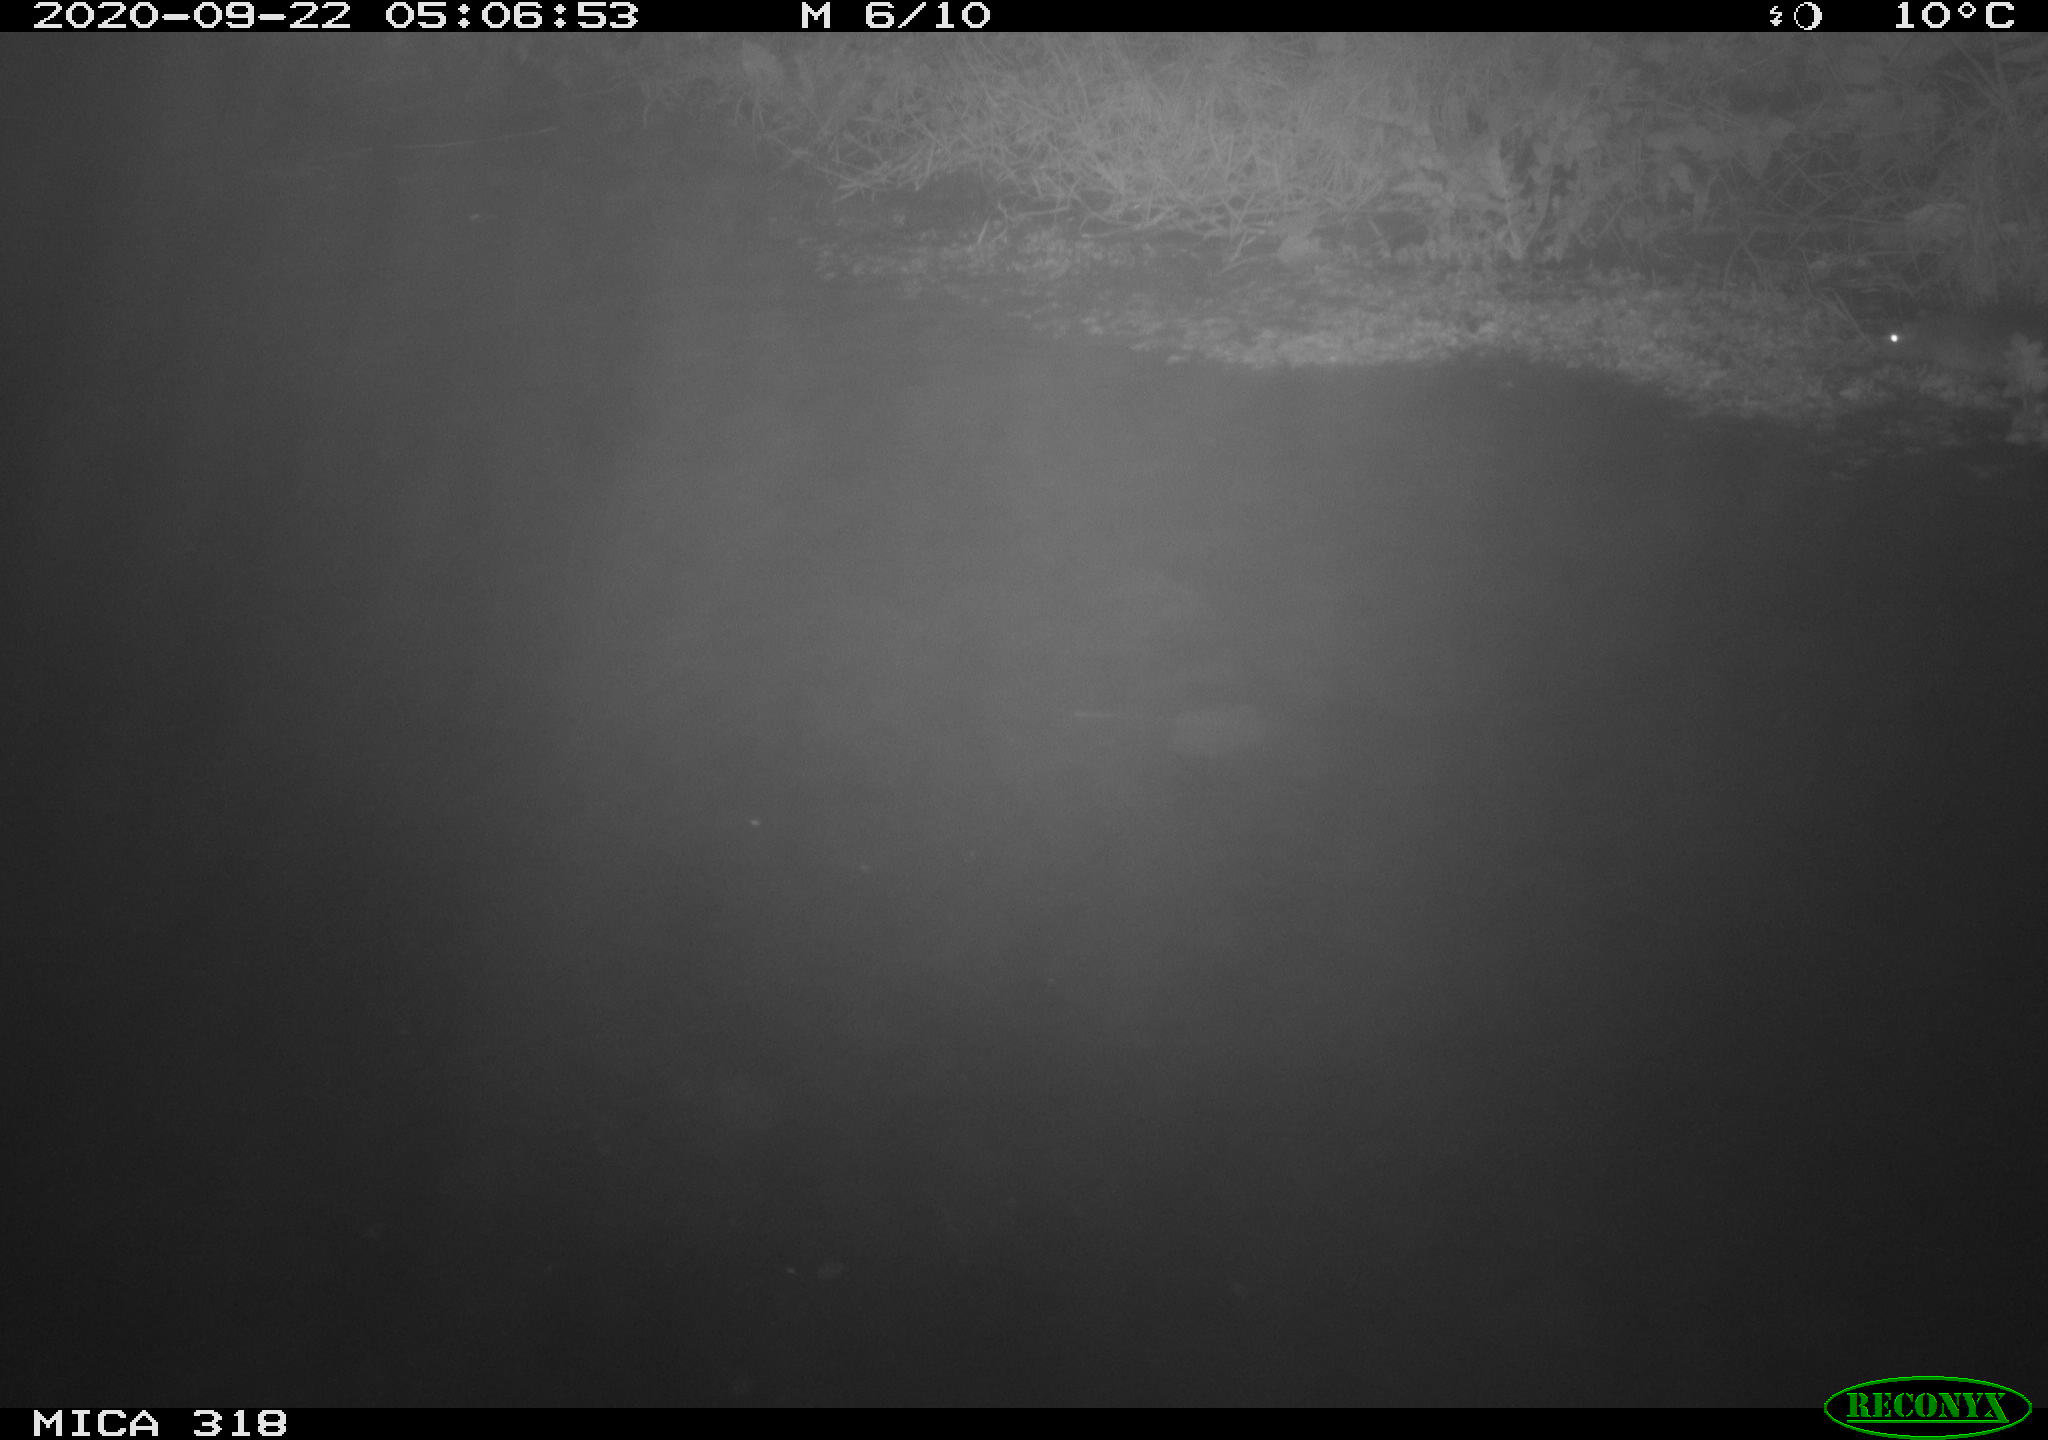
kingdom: Animalia
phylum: Chordata
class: Mammalia
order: Rodentia
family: Muridae
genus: Rattus
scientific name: Rattus norvegicus
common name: Brown rat
